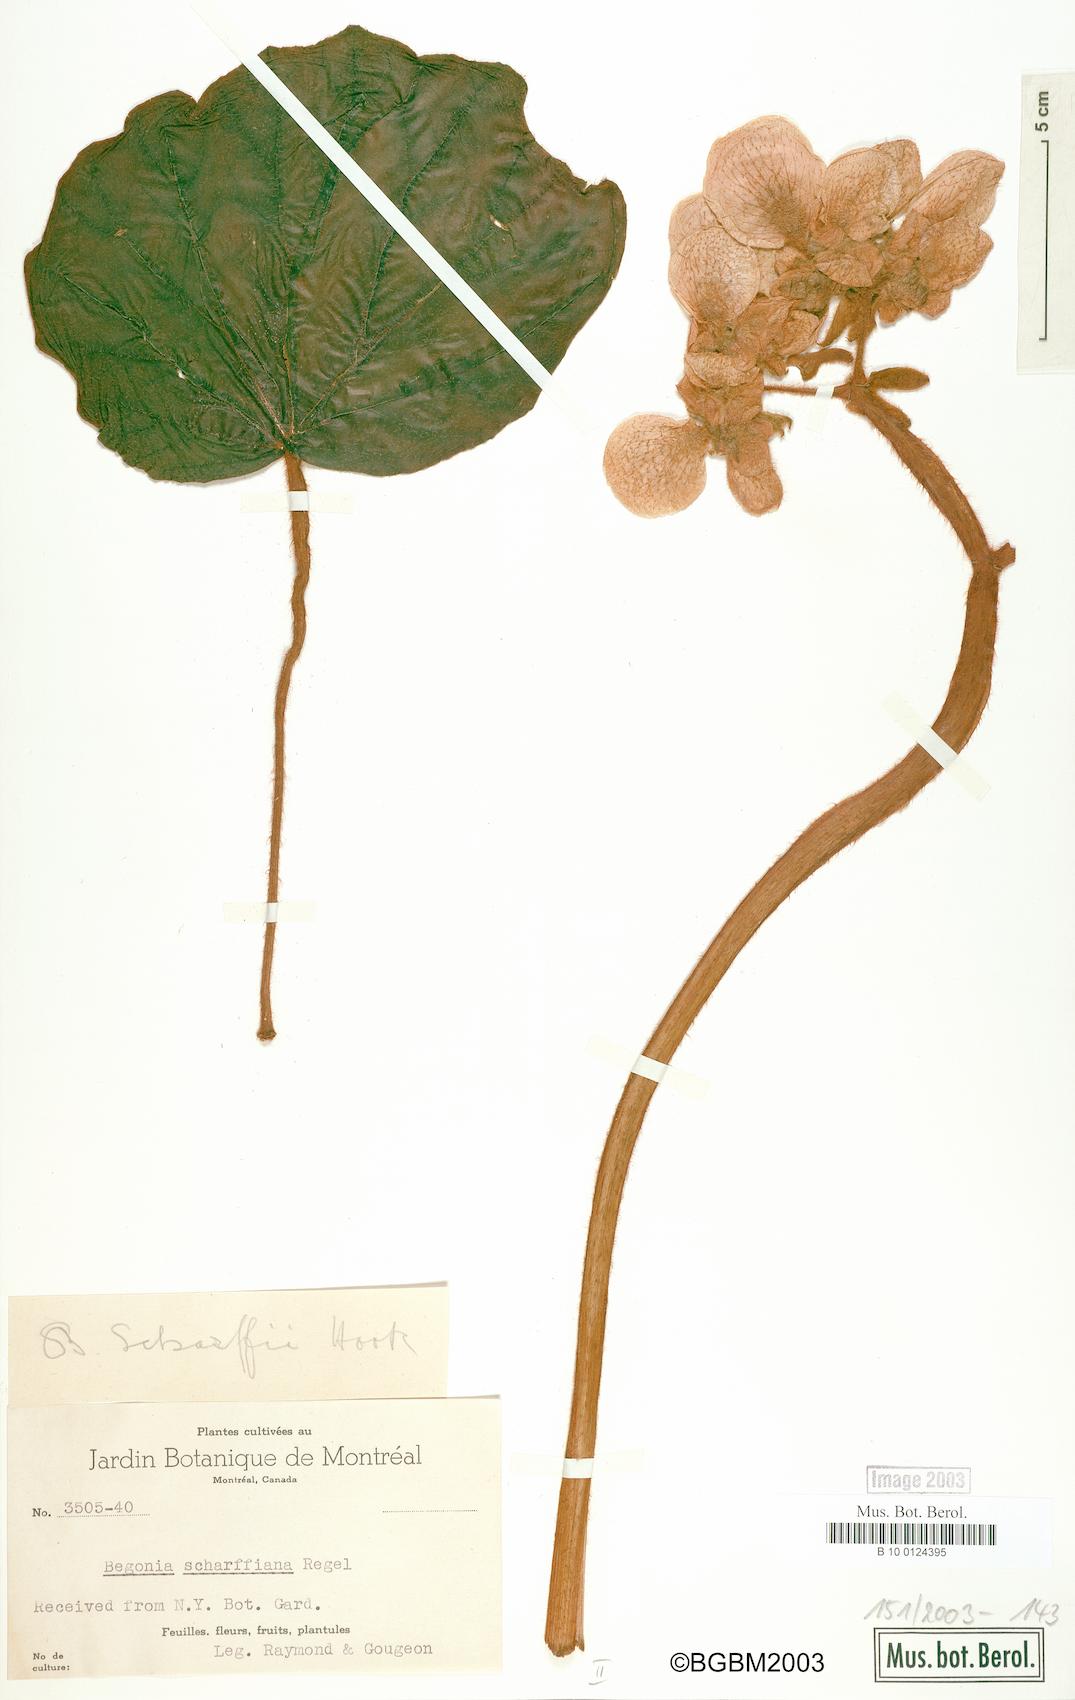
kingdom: Plantae
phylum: Tracheophyta
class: Magnoliopsida
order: Cucurbitales
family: Begoniaceae
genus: Begonia
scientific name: Begonia scharffiana
